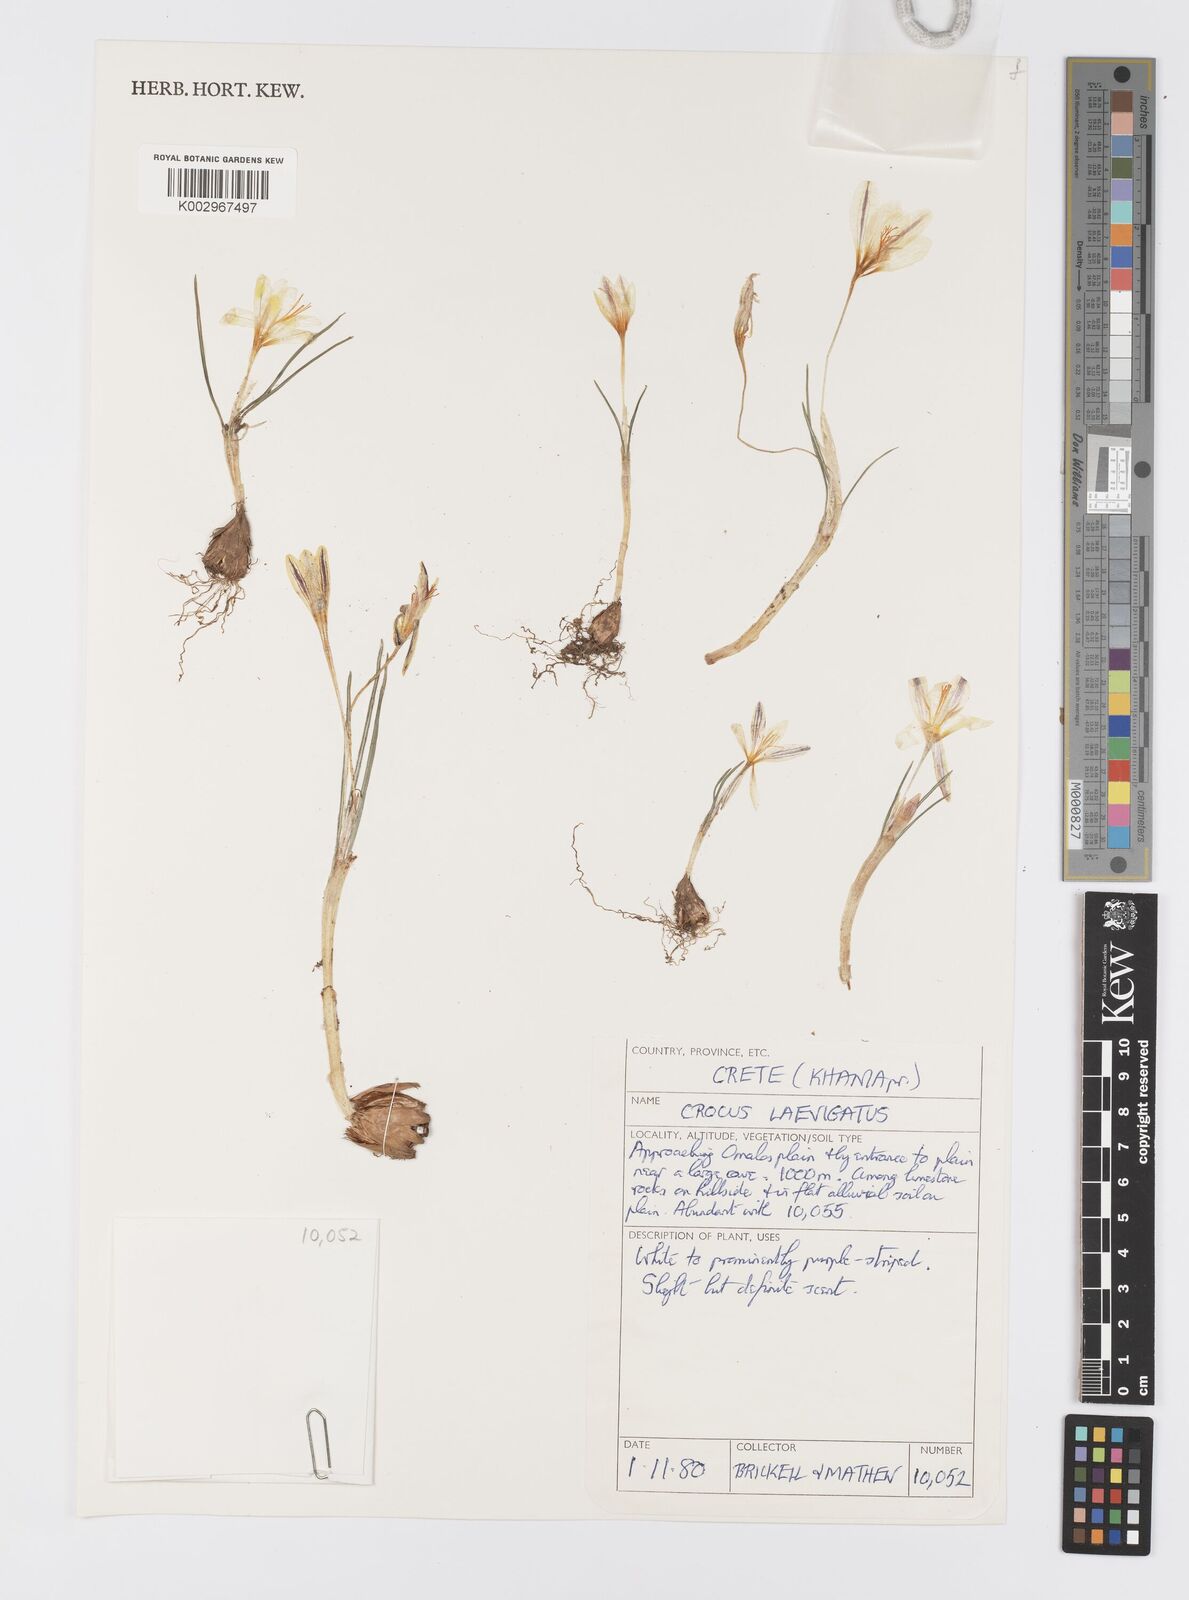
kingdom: Plantae
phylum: Tracheophyta
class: Liliopsida
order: Asparagales
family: Iridaceae
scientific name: Iridaceae
